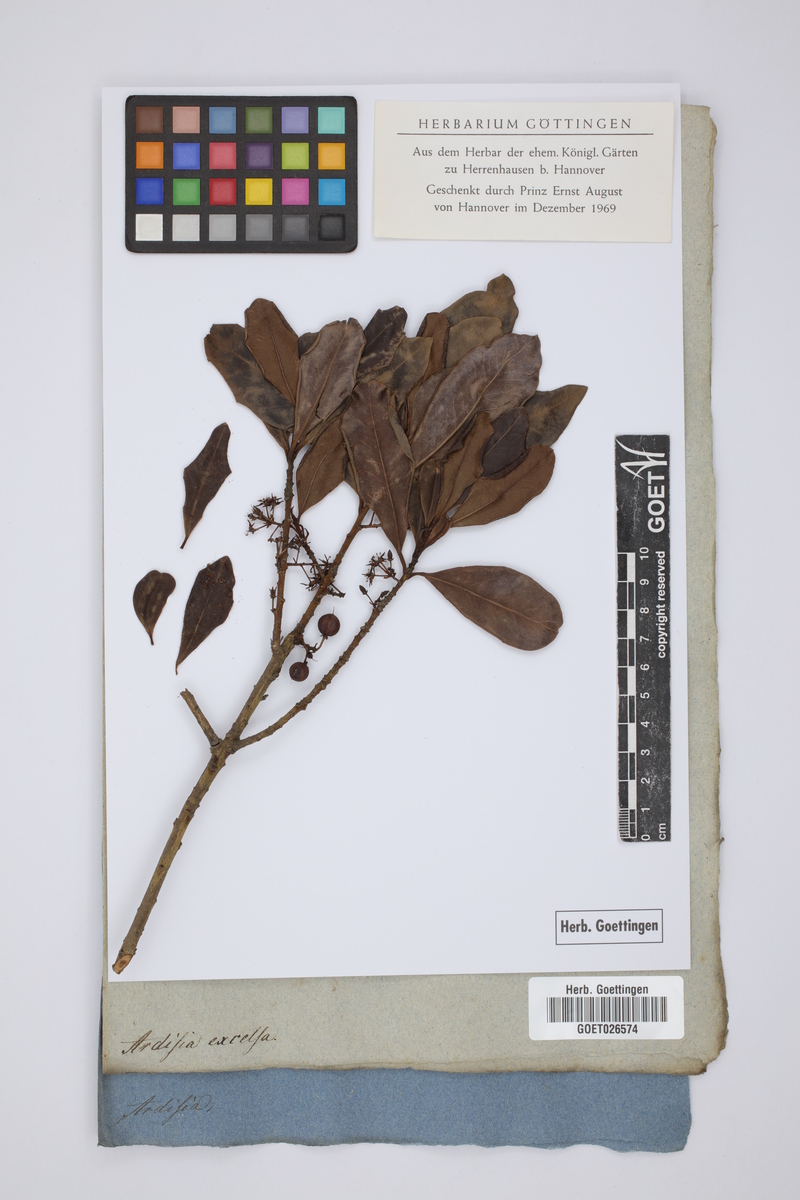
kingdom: Plantae
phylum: Tracheophyta
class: Magnoliopsida
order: Ericales
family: Primulaceae
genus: Heberdenia
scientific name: Heberdenia excelsa
